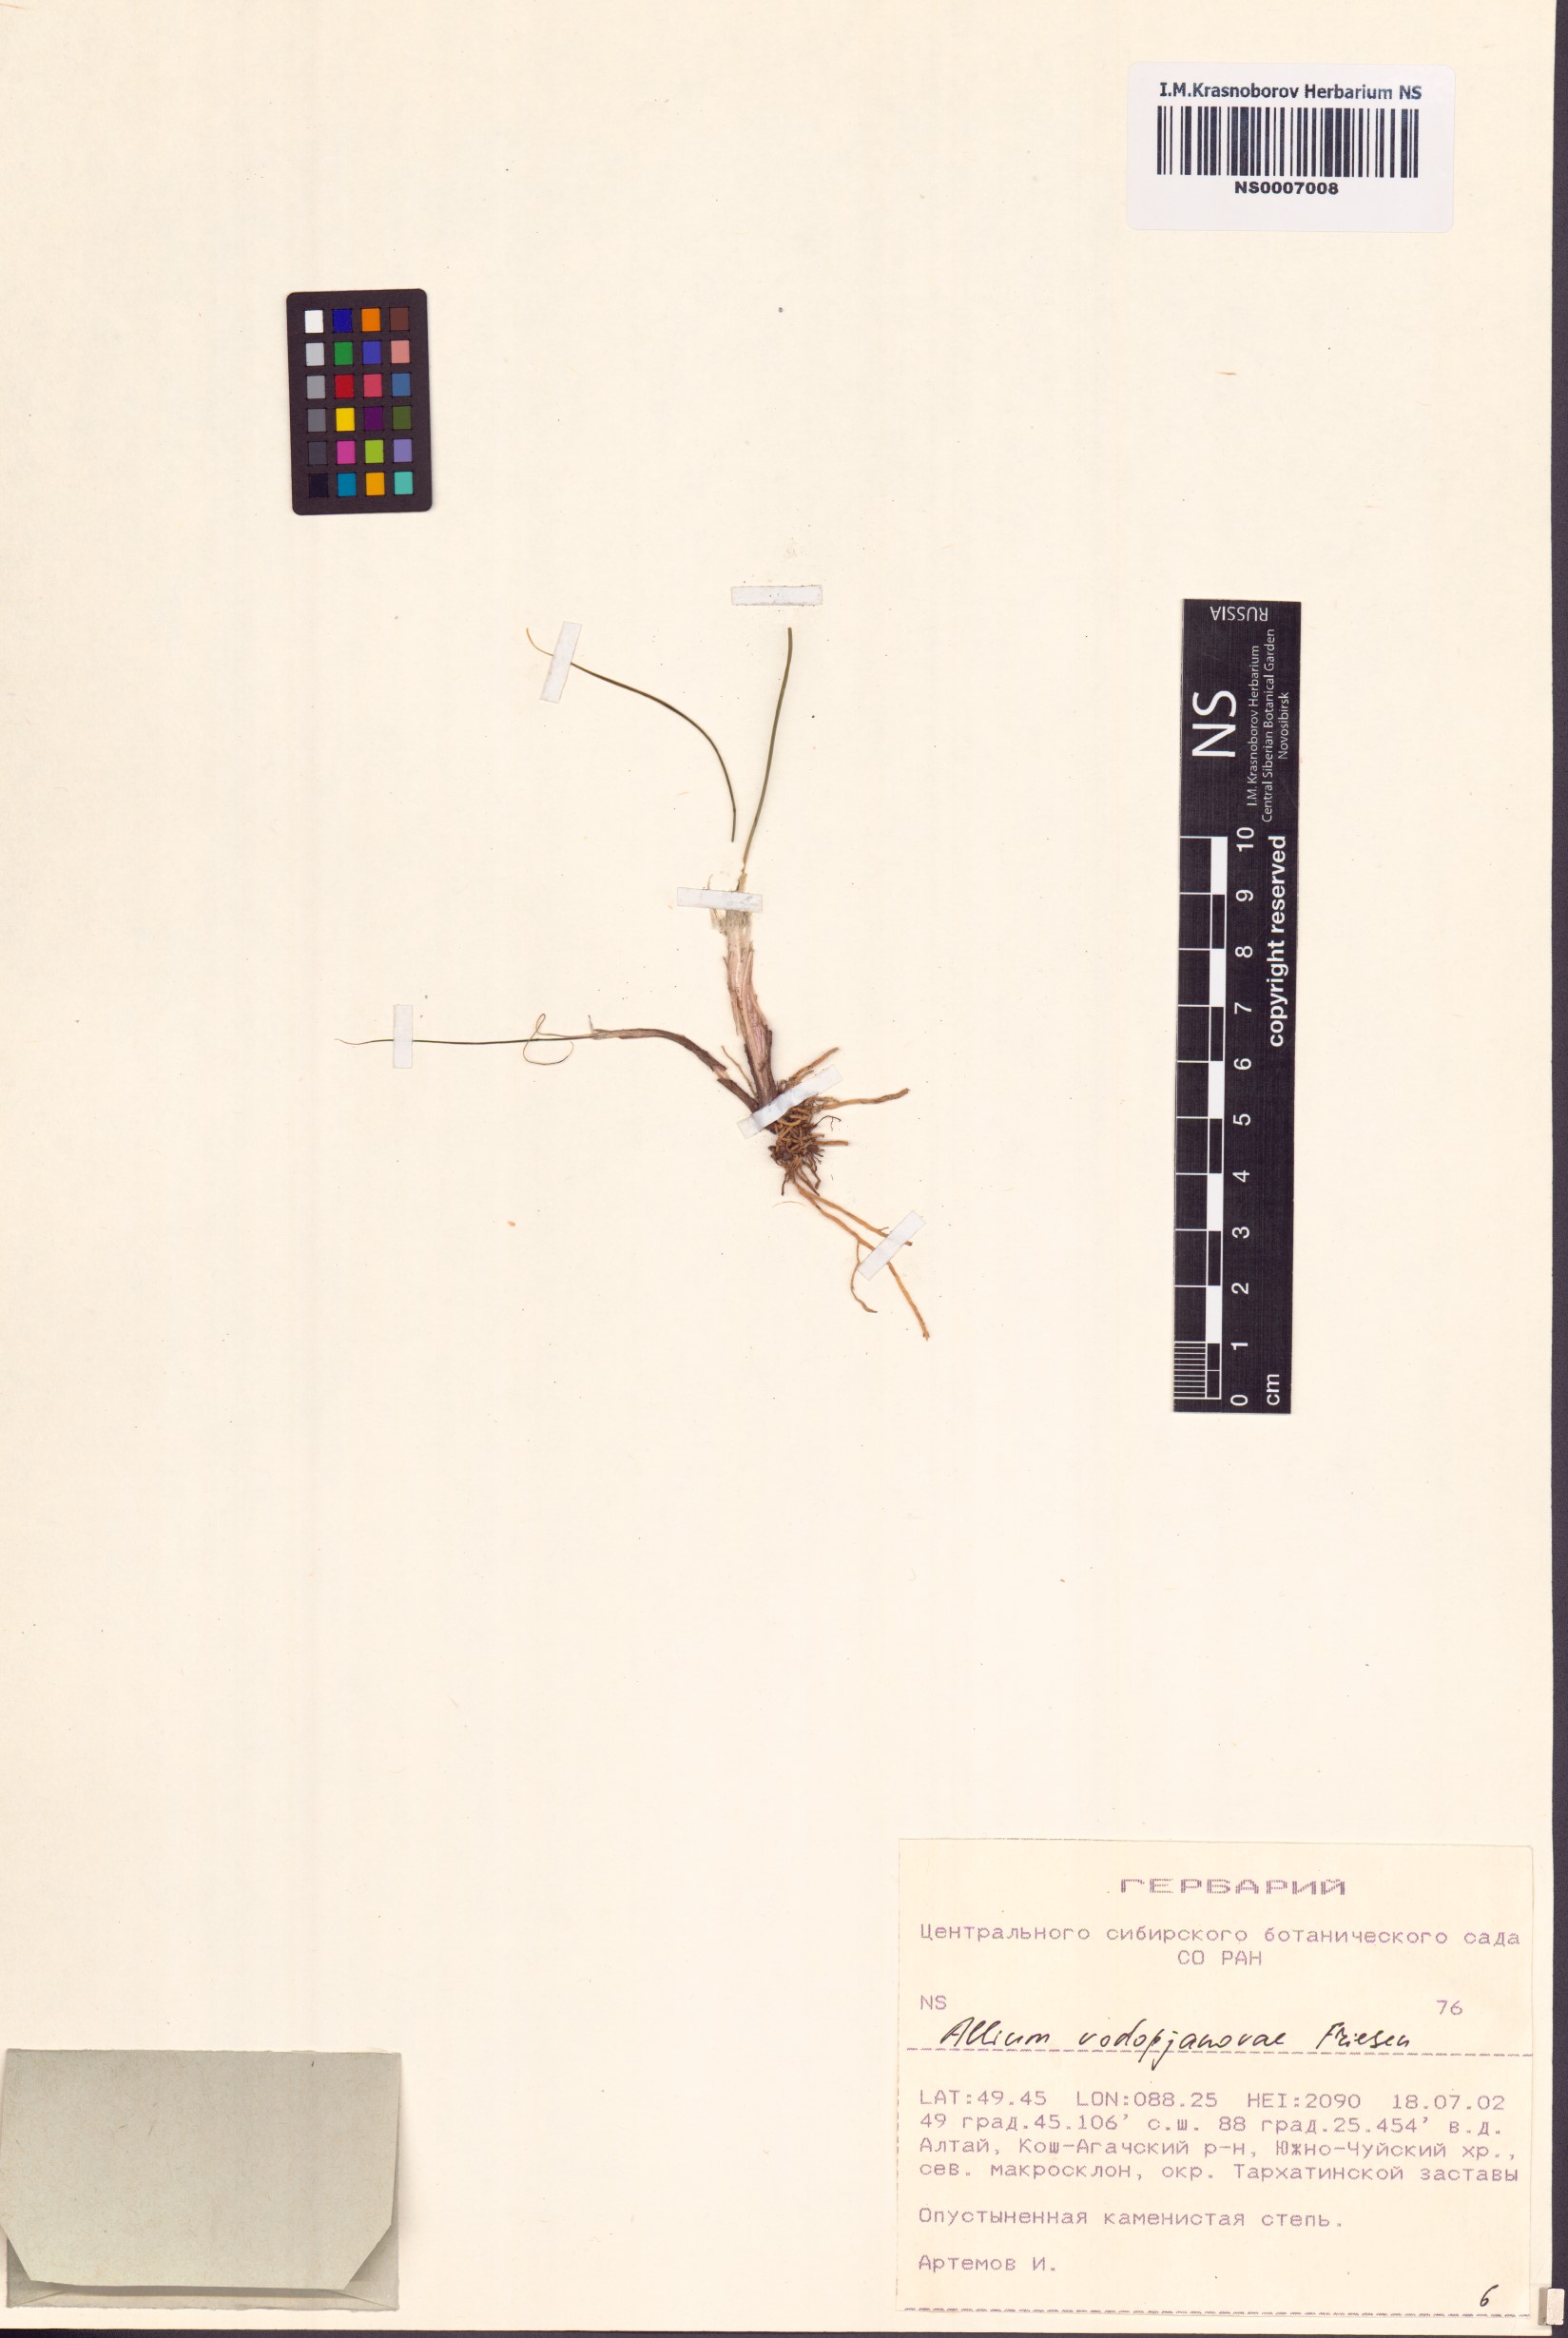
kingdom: Plantae
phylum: Tracheophyta
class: Liliopsida
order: Asparagales
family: Amaryllidaceae
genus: Allium
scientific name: Allium vodopjanovae
